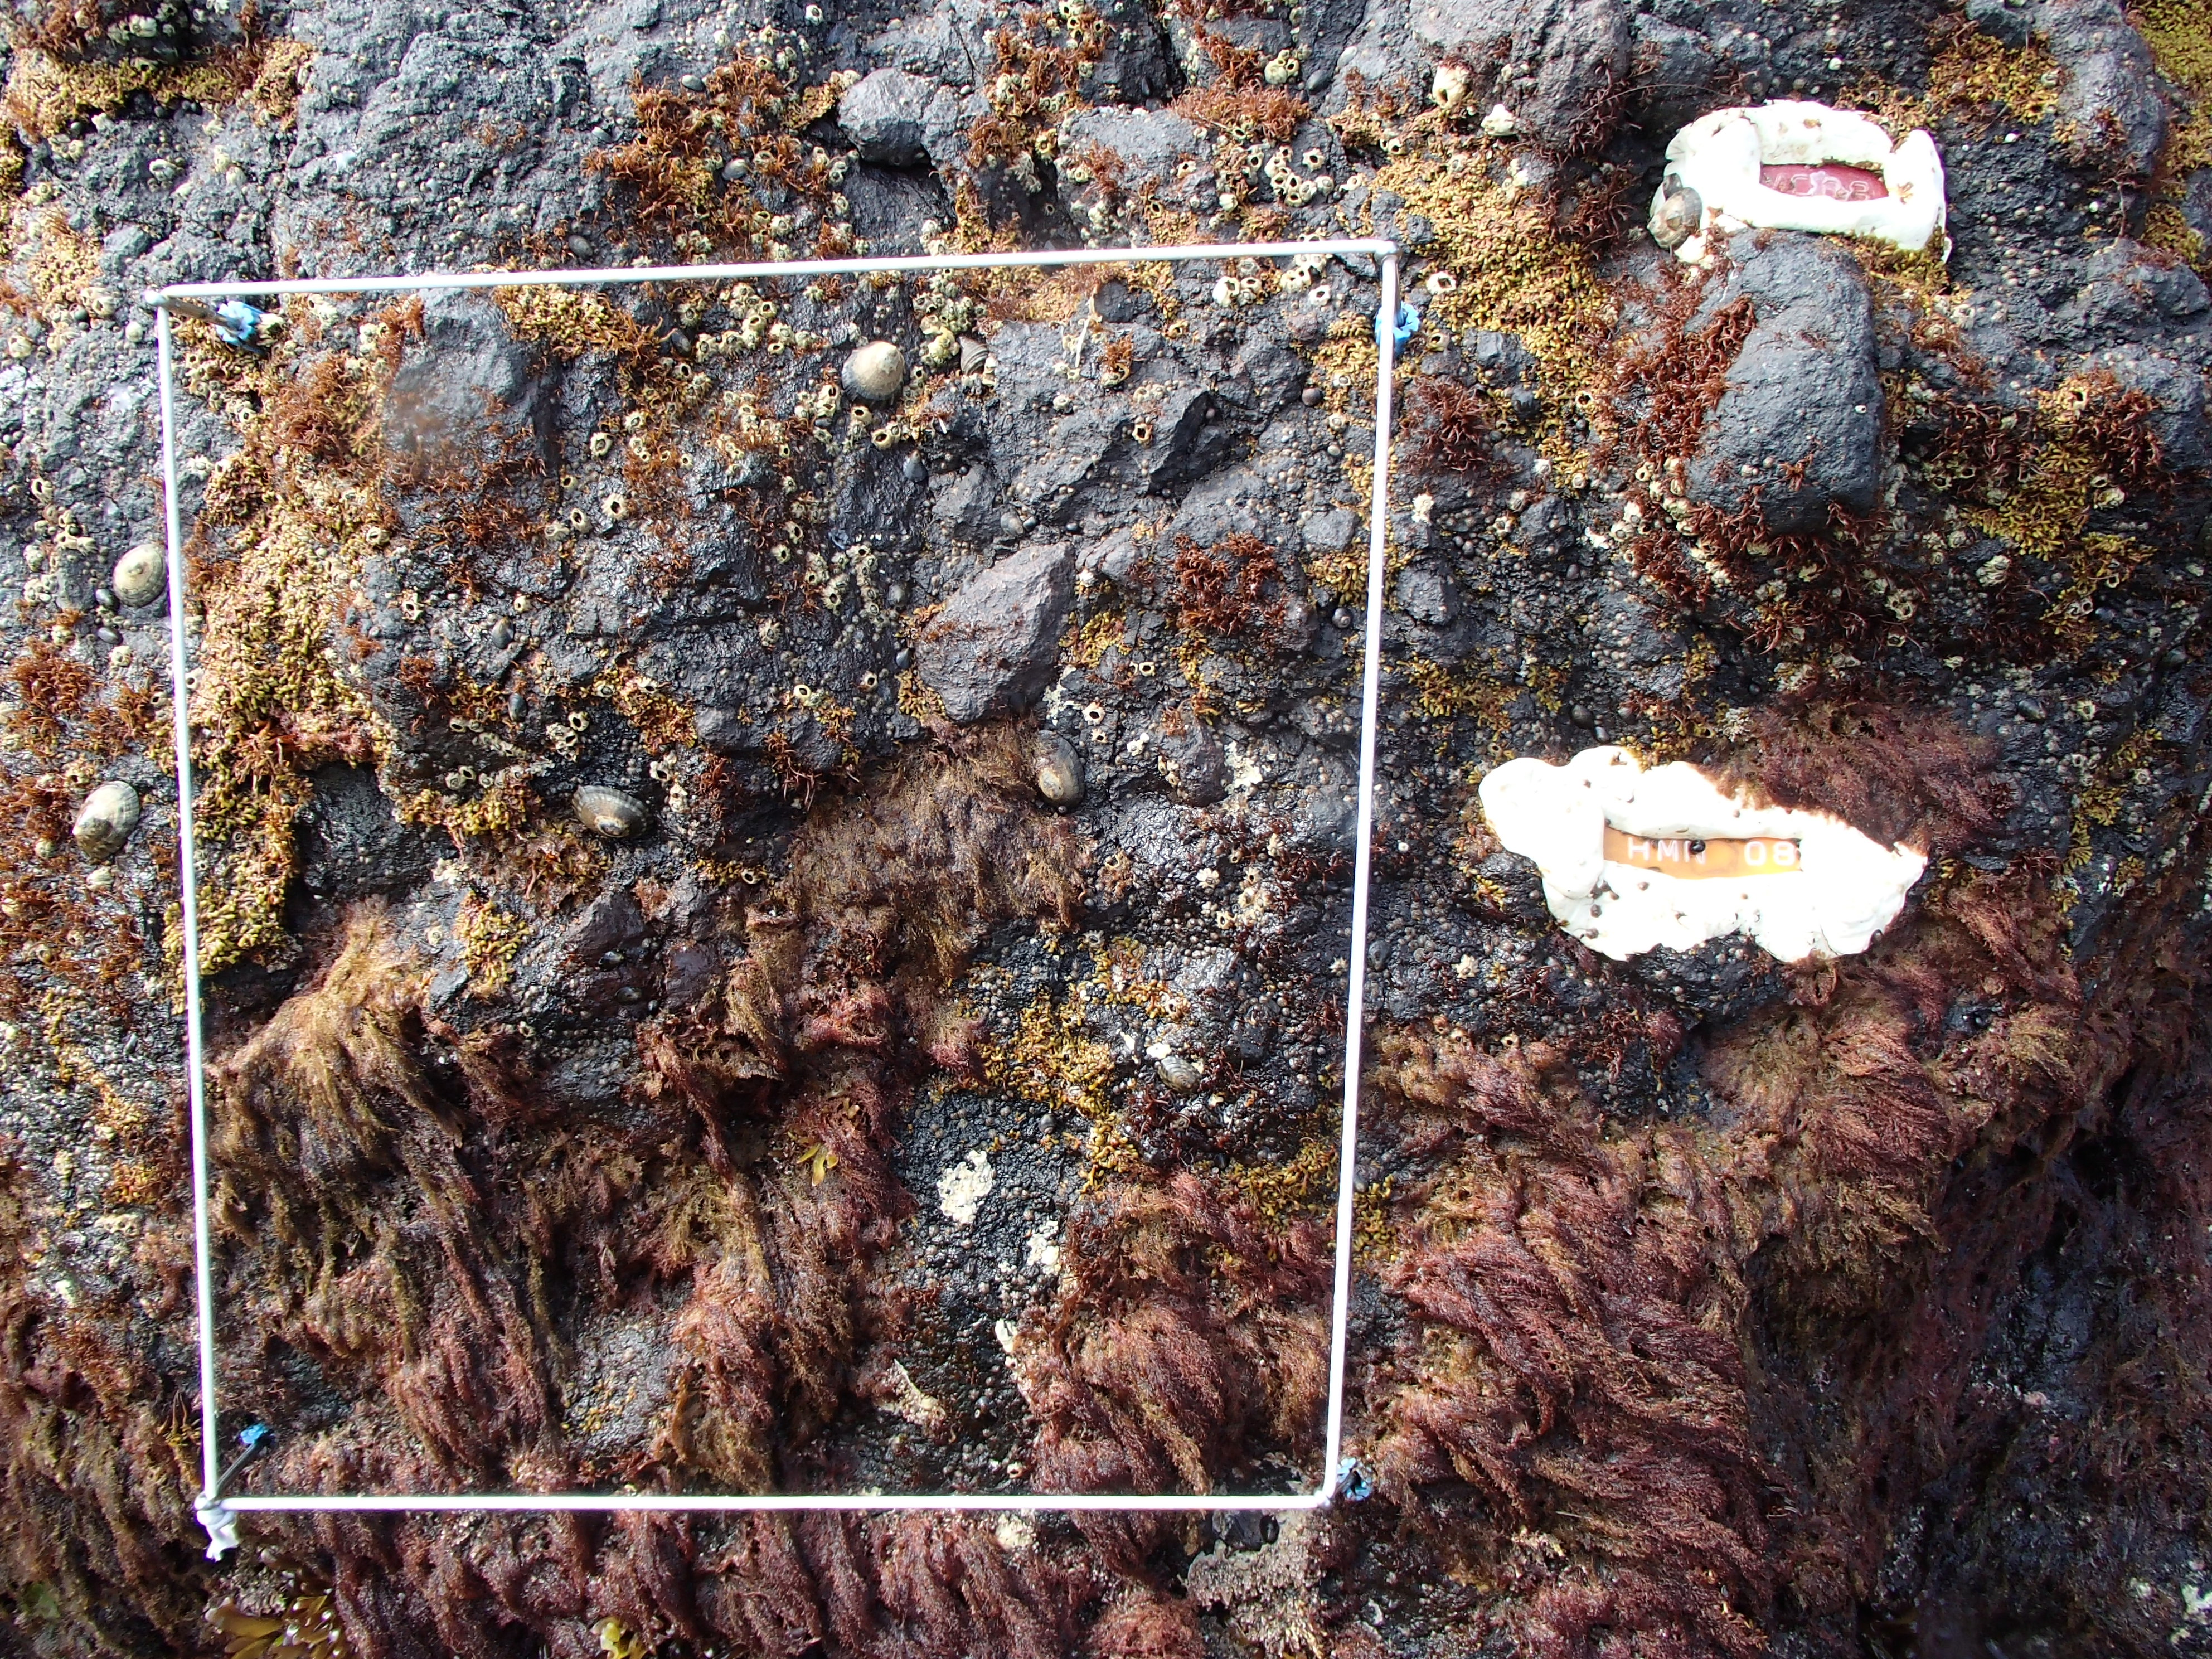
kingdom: Chromista
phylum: Ochrophyta
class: Phaeophyceae
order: Scytosiphonales
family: Scytosiphonaceae
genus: Analipus
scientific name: Analipus japonicus
